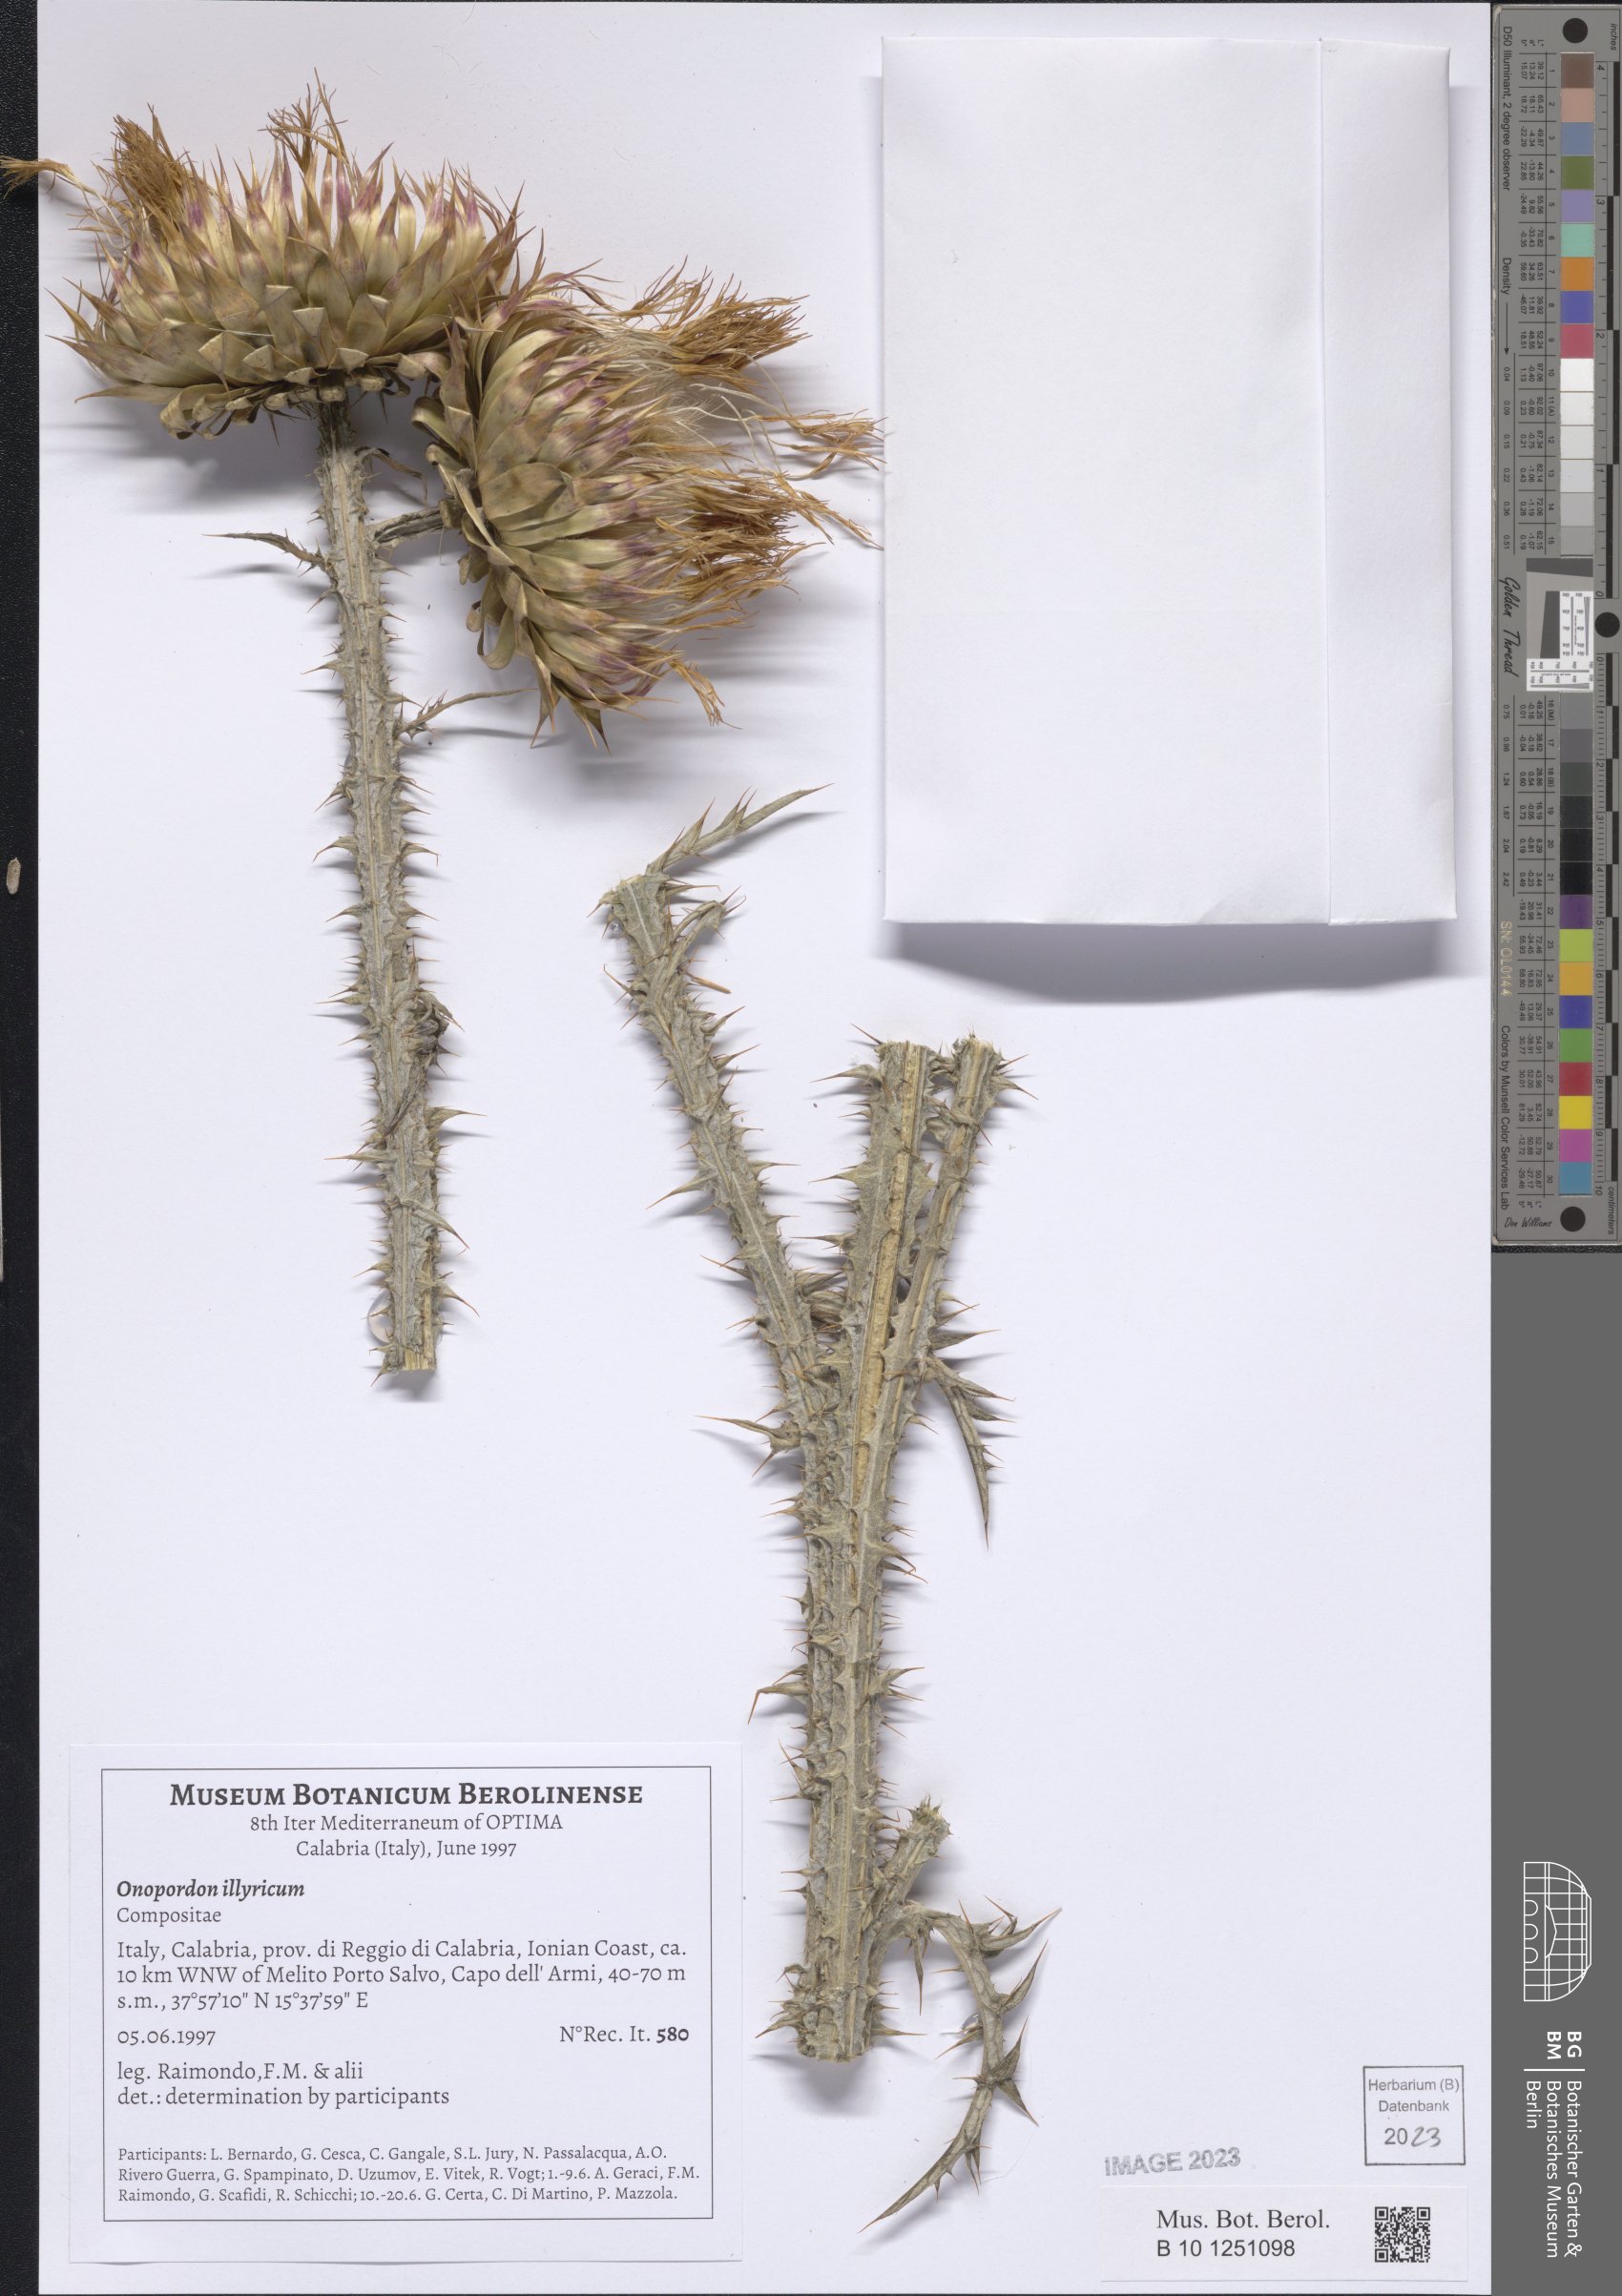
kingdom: Plantae
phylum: Tracheophyta
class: Magnoliopsida
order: Asterales
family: Asteraceae
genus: Onopordum
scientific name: Onopordum illyricum
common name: Illyrian thistle
